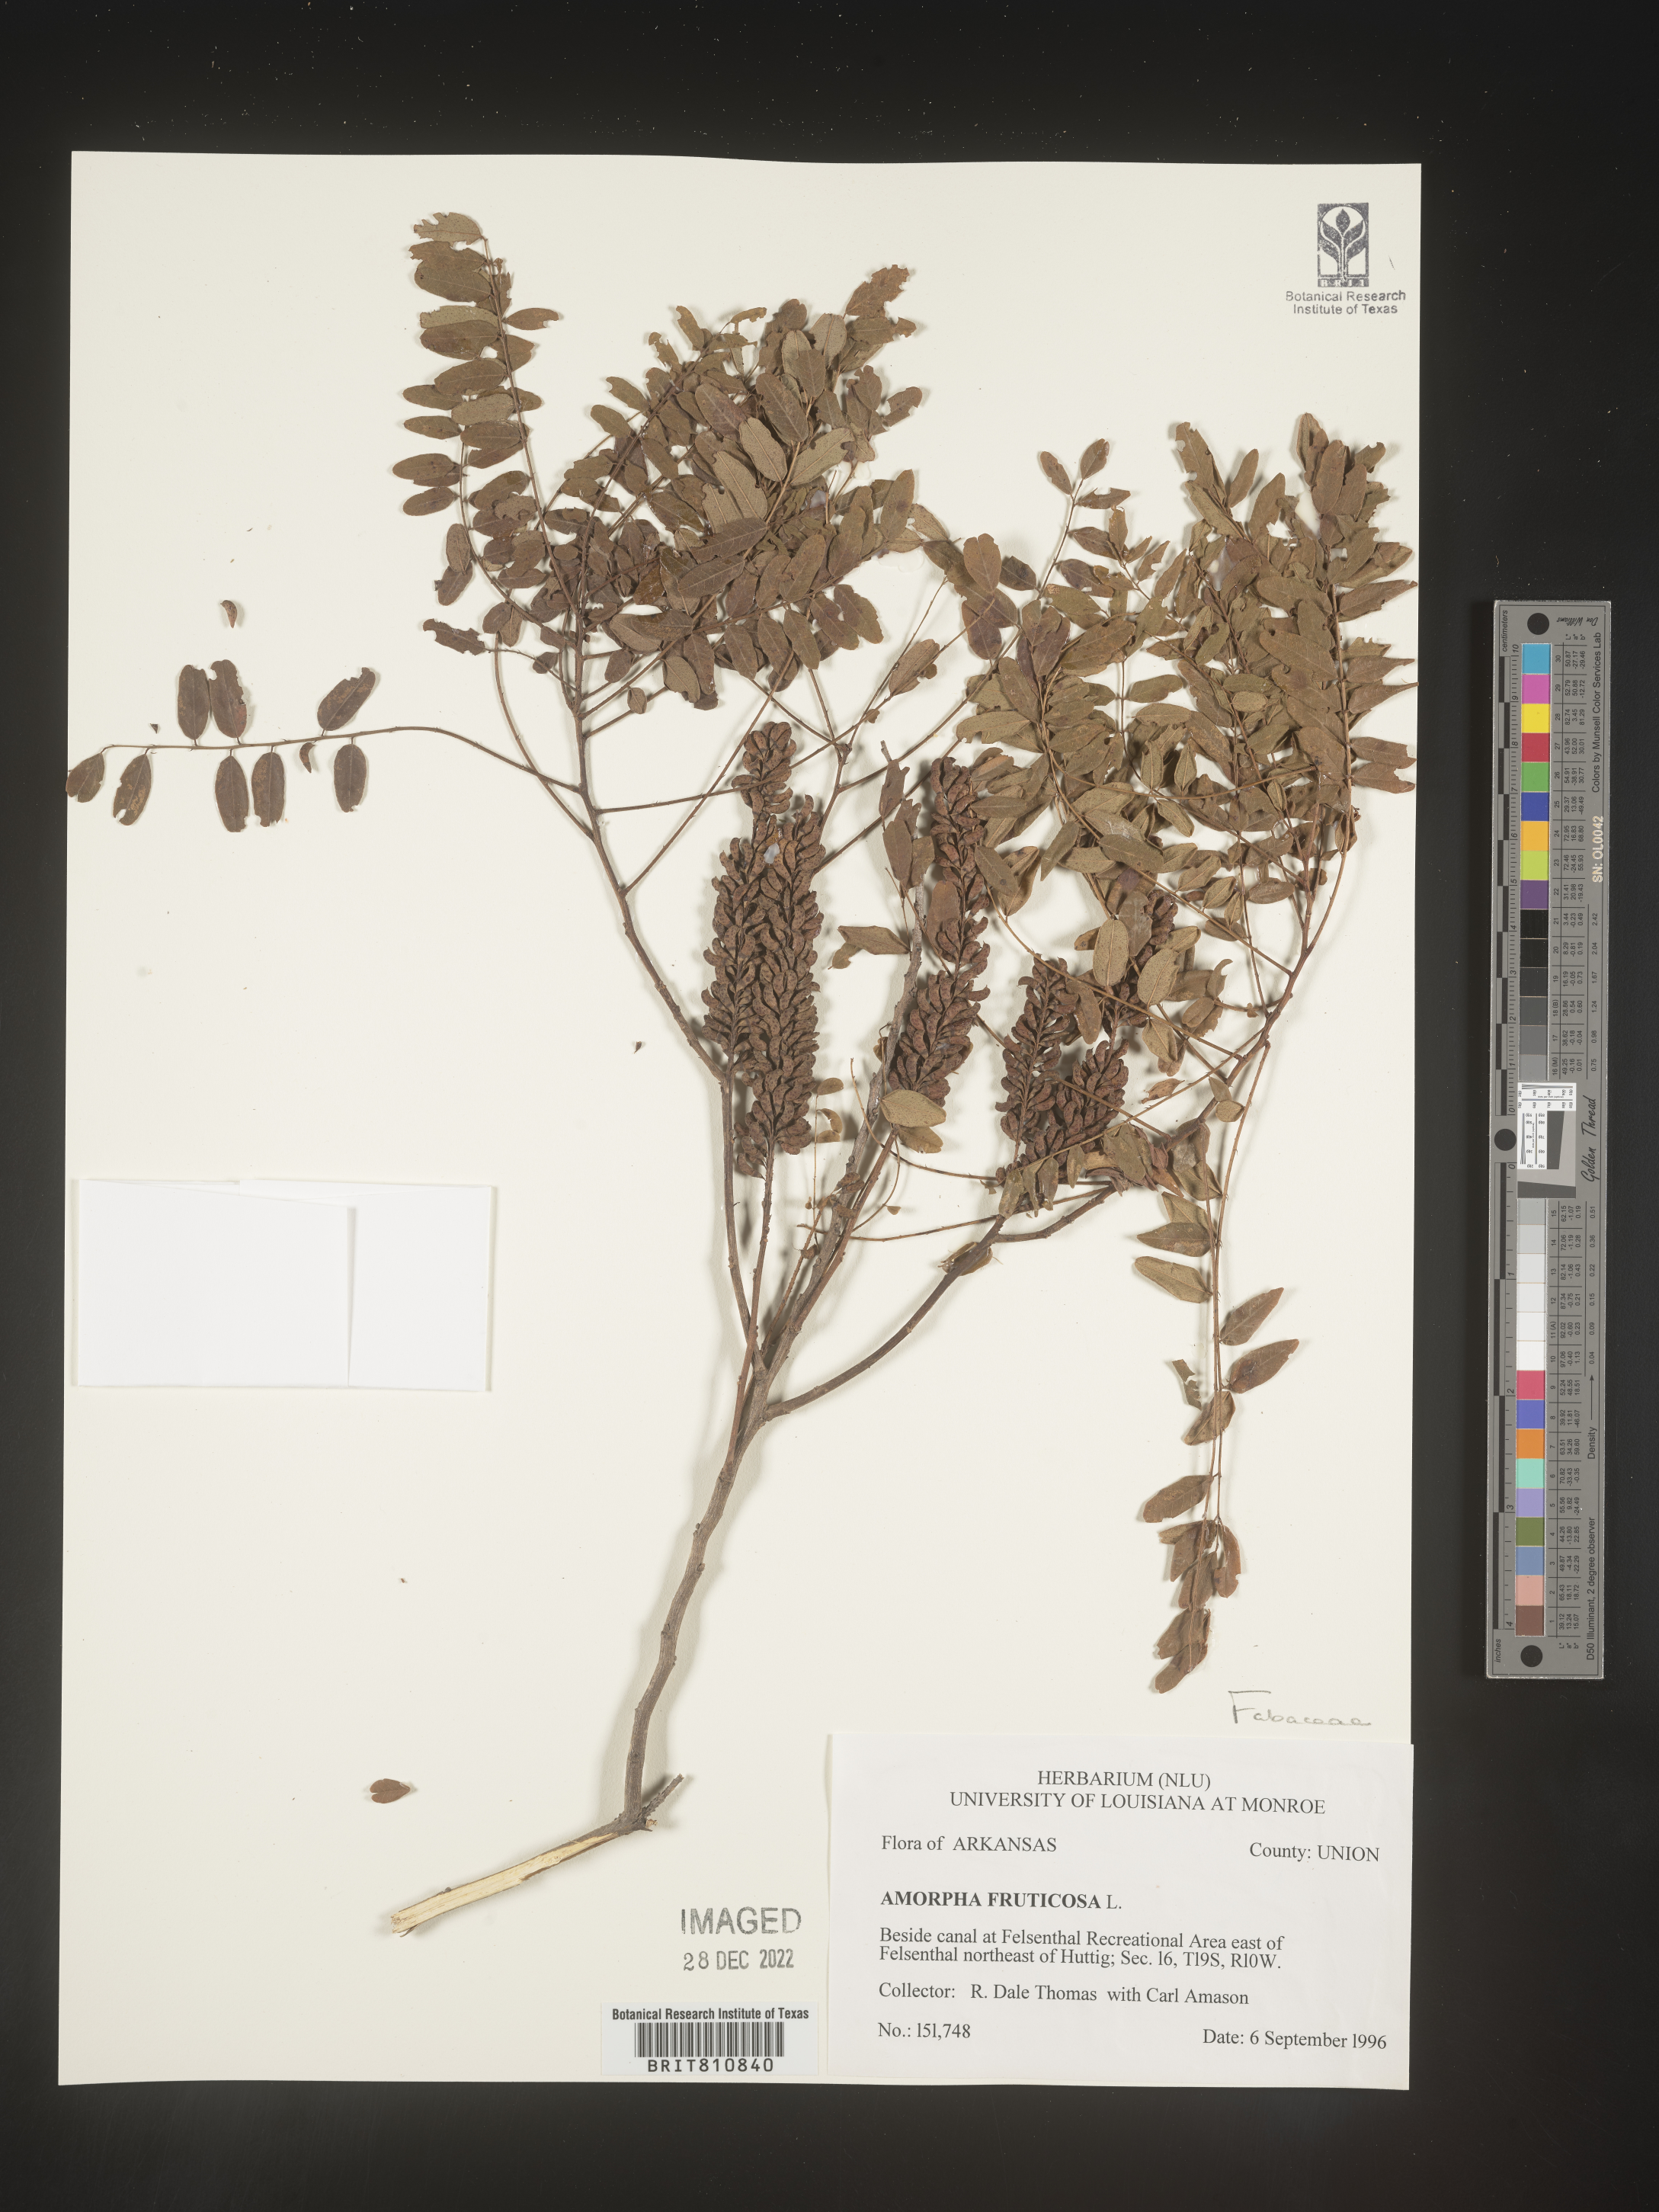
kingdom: Plantae
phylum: Tracheophyta
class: Magnoliopsida
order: Fabales
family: Fabaceae
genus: Amorpha
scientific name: Amorpha fruticosa
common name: False indigo
